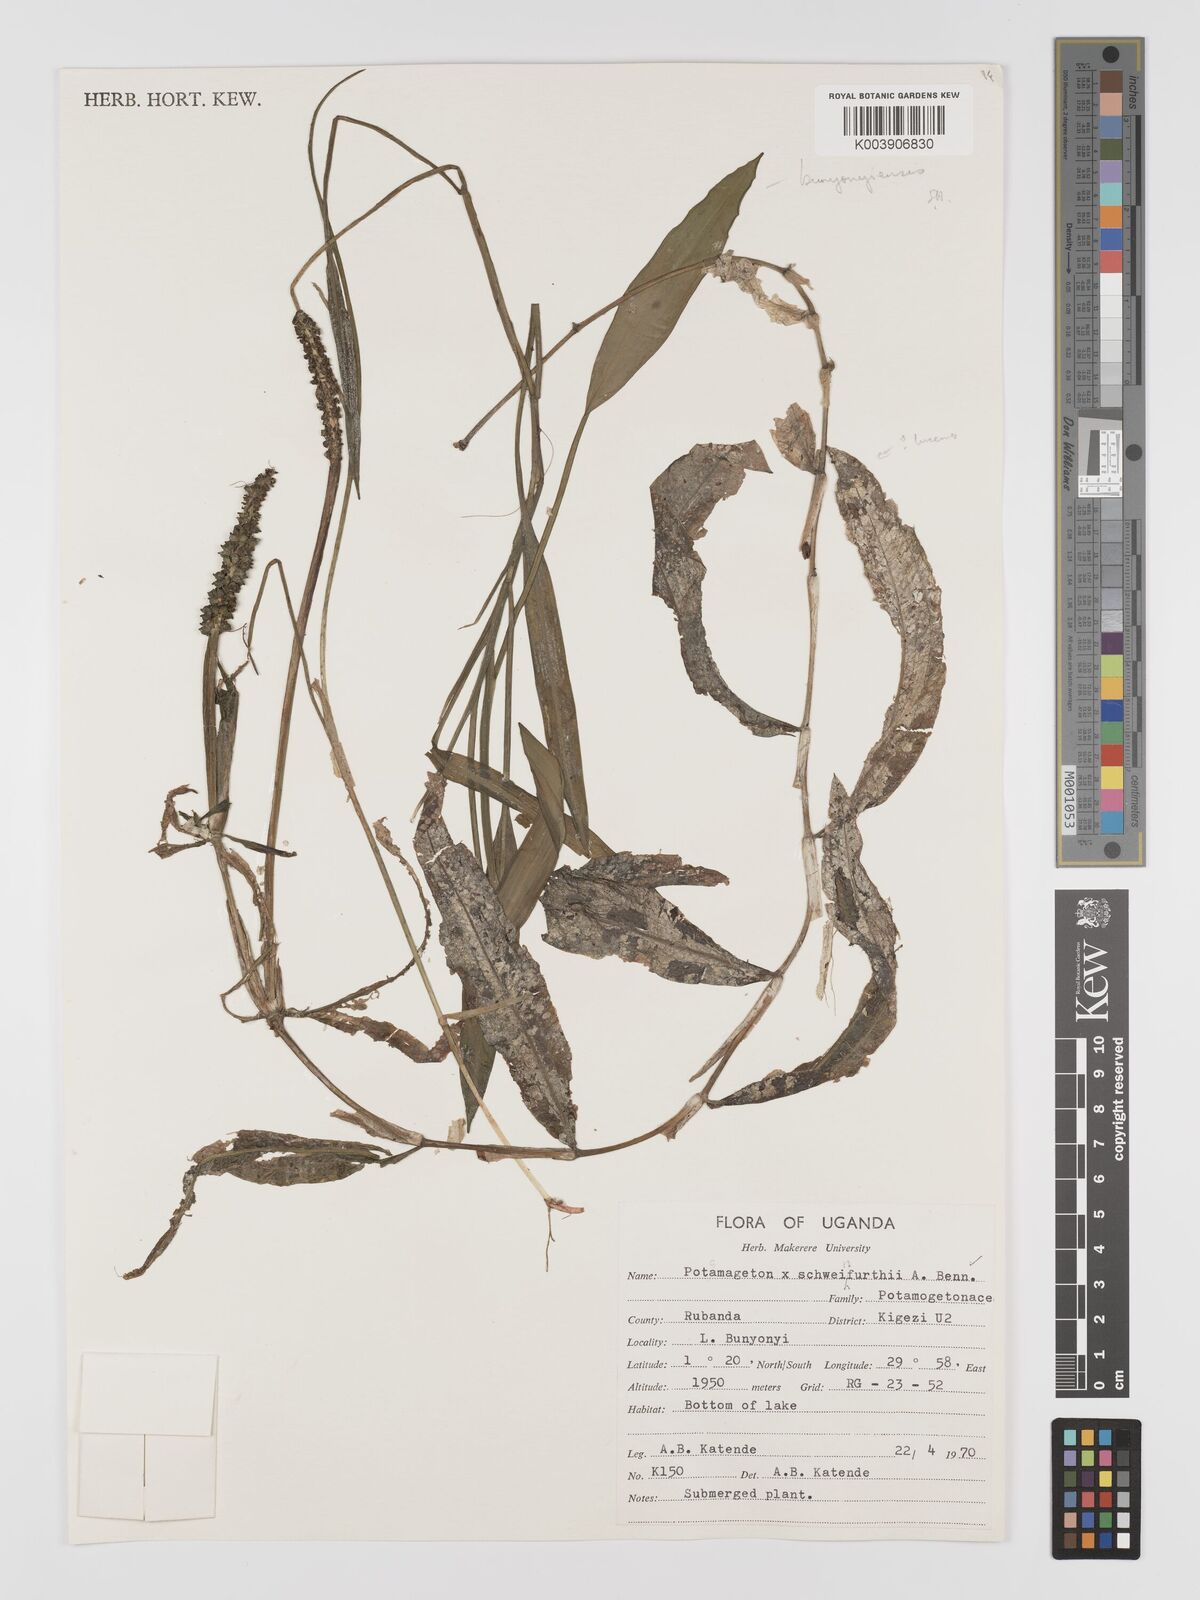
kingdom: Plantae
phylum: Tracheophyta
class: Liliopsida
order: Alismatales
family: Potamogetonaceae
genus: Potamogeton
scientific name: Potamogeton schweinfurthii
